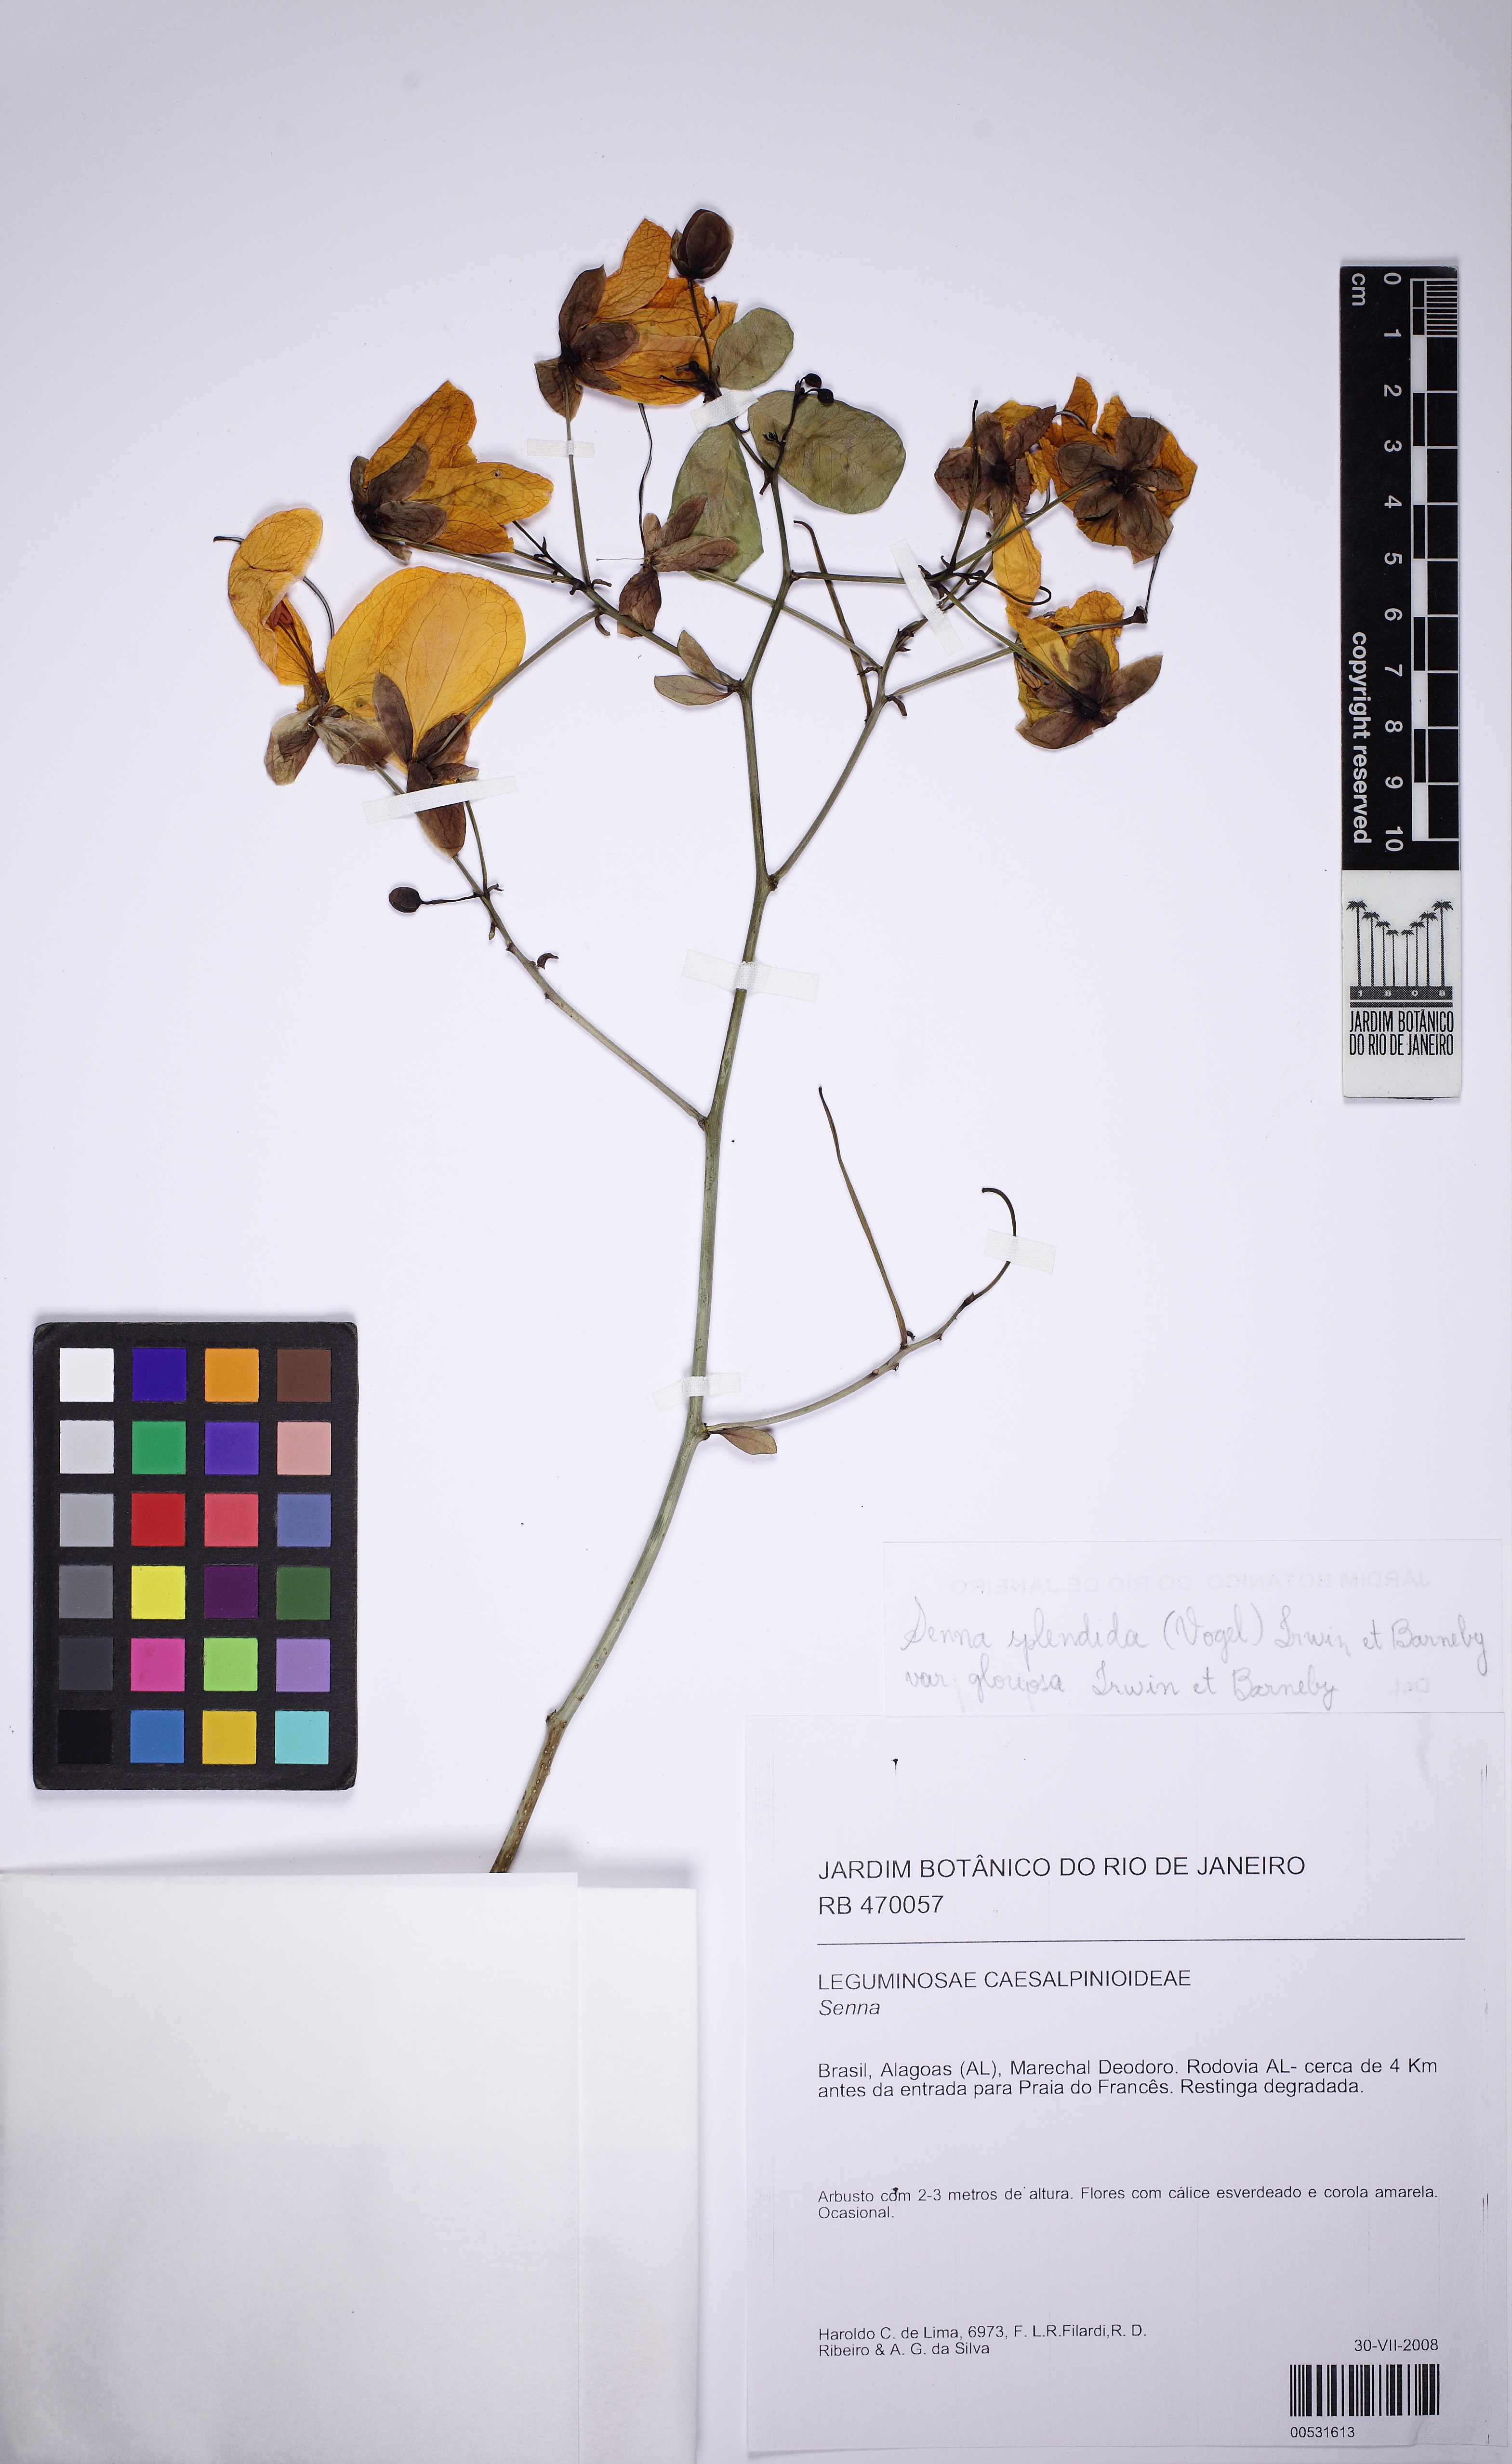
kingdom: Plantae
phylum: Tracheophyta
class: Magnoliopsida
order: Fabales
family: Fabaceae
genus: Senna
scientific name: Senna
